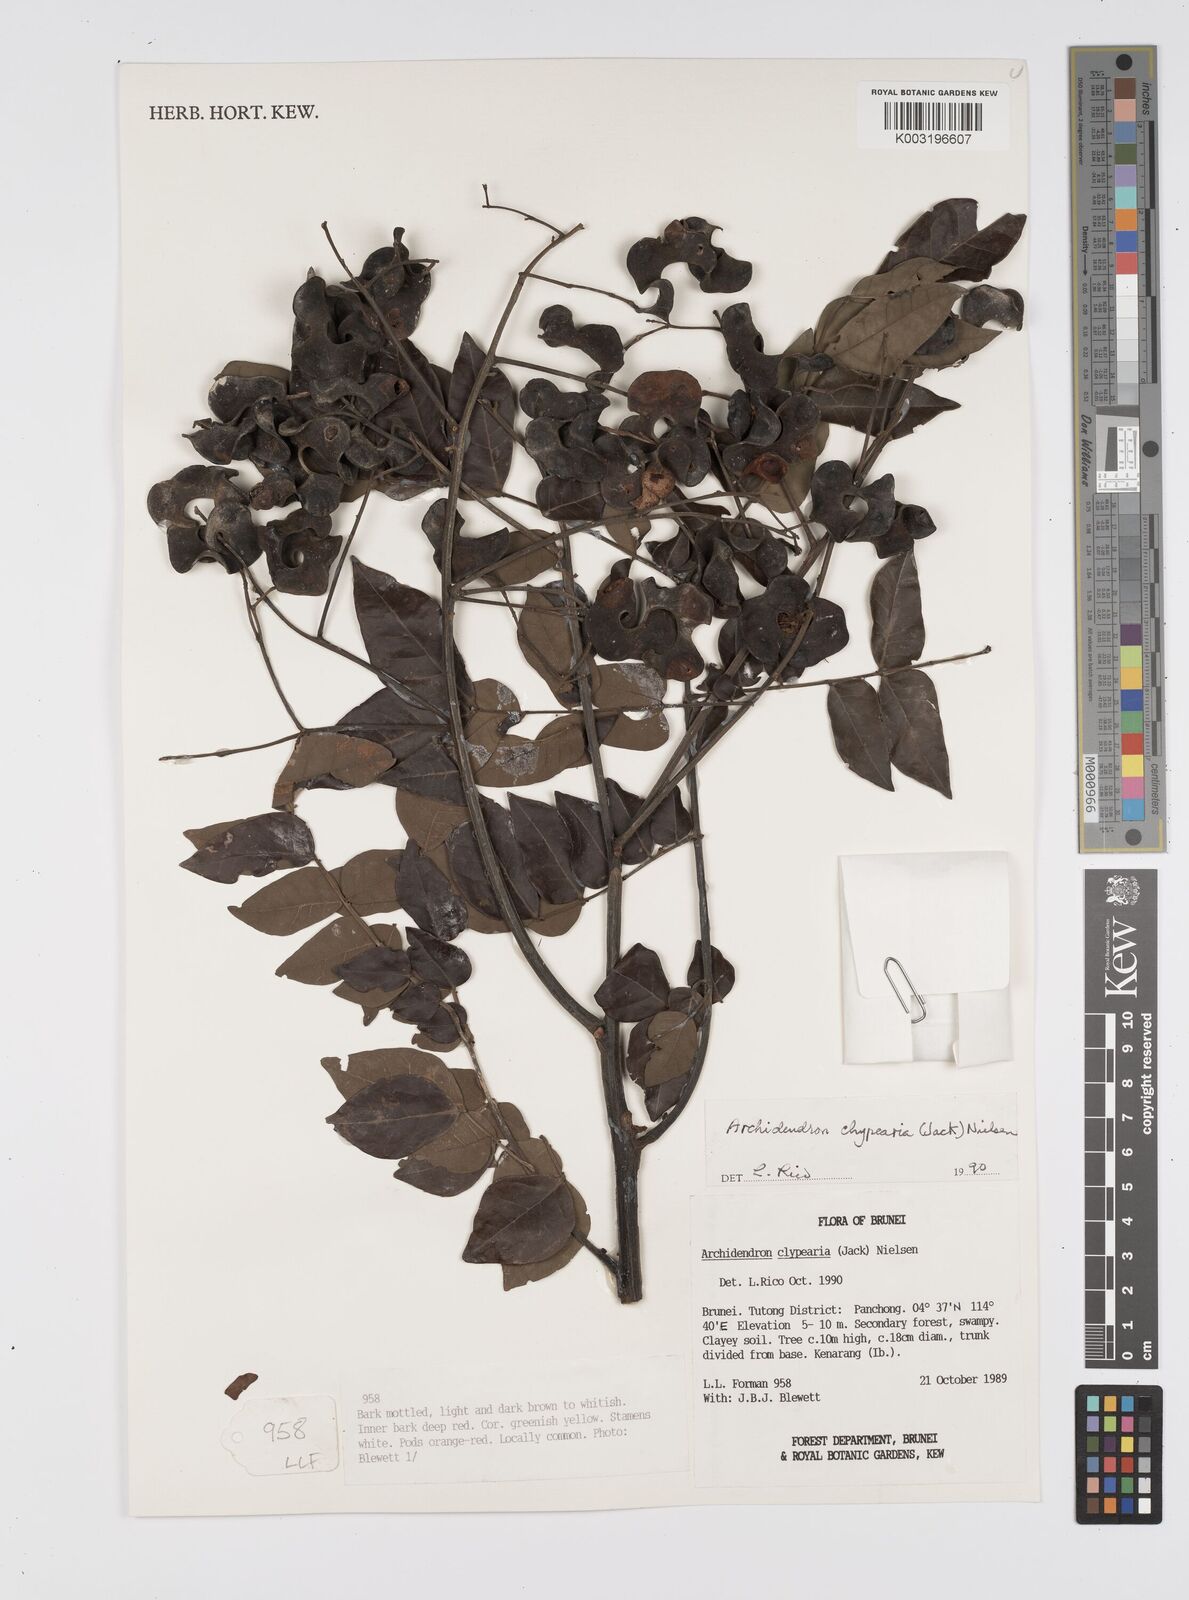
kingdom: Plantae
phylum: Tracheophyta
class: Magnoliopsida
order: Fabales
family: Fabaceae
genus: Archidendron
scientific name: Archidendron clypearia
